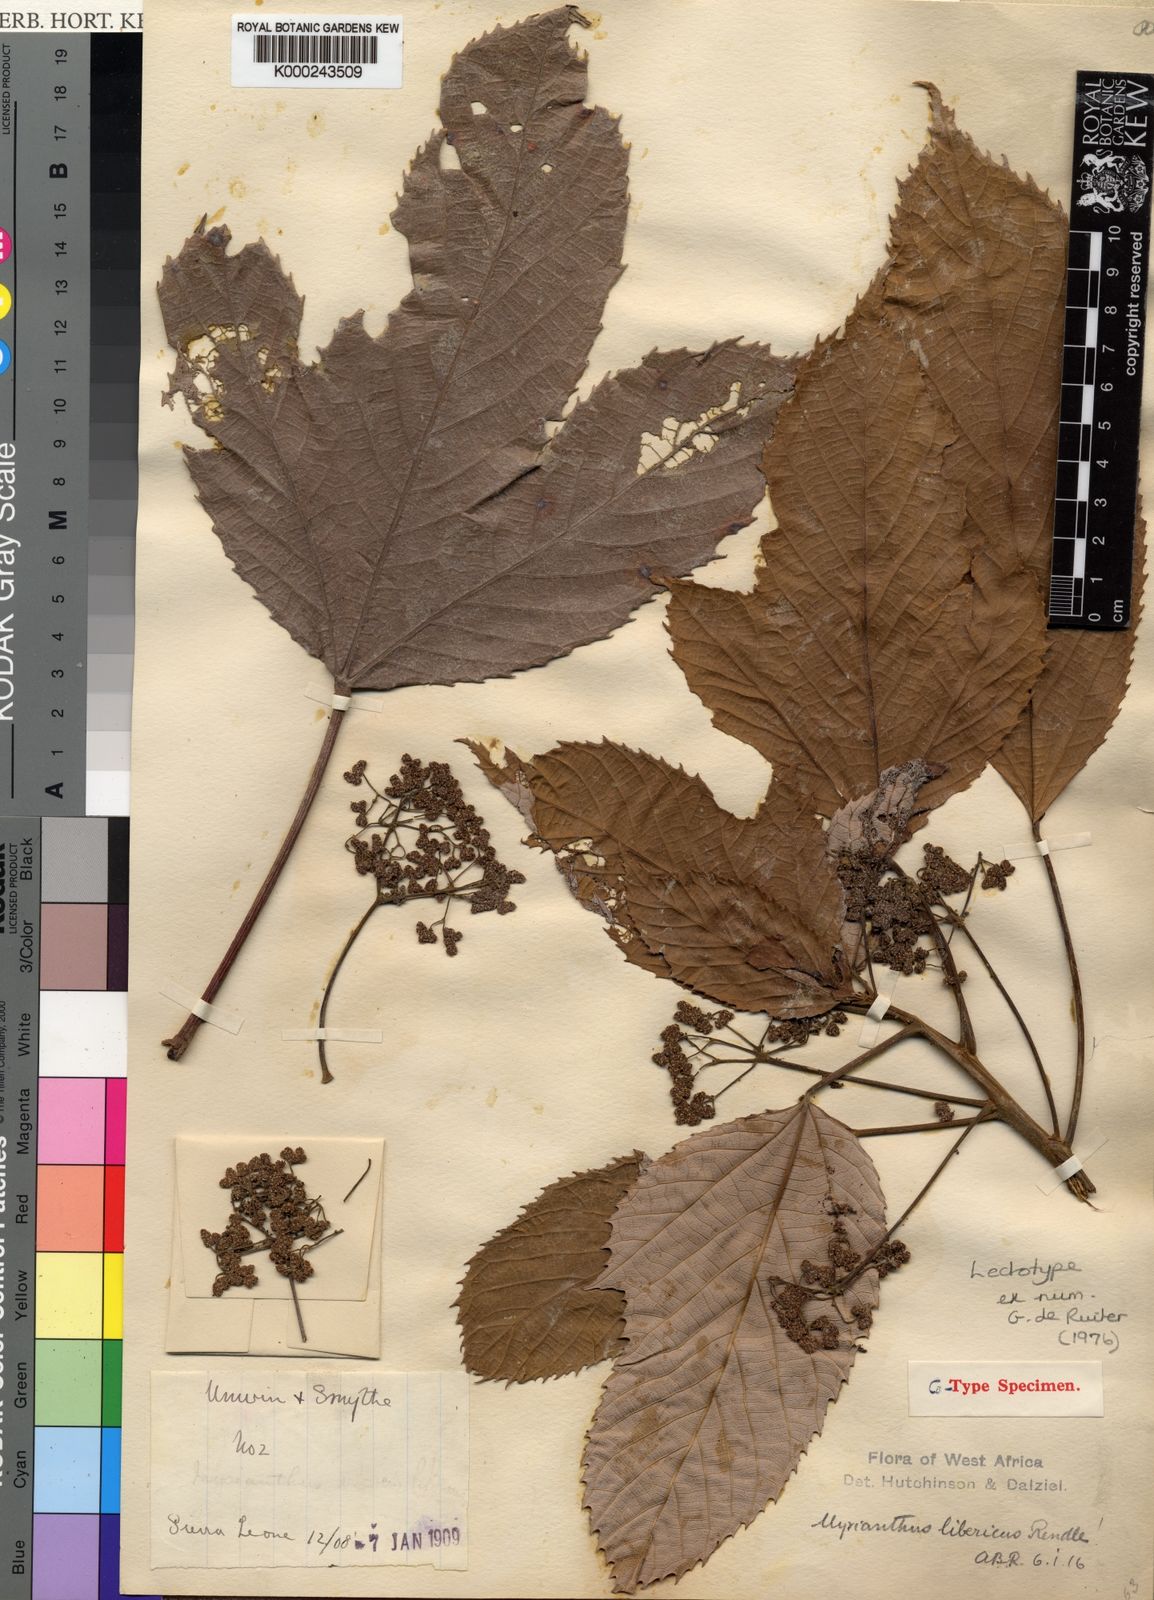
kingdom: Plantae
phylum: Tracheophyta
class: Magnoliopsida
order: Rosales
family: Urticaceae
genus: Myrianthus
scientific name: Myrianthus libericus
